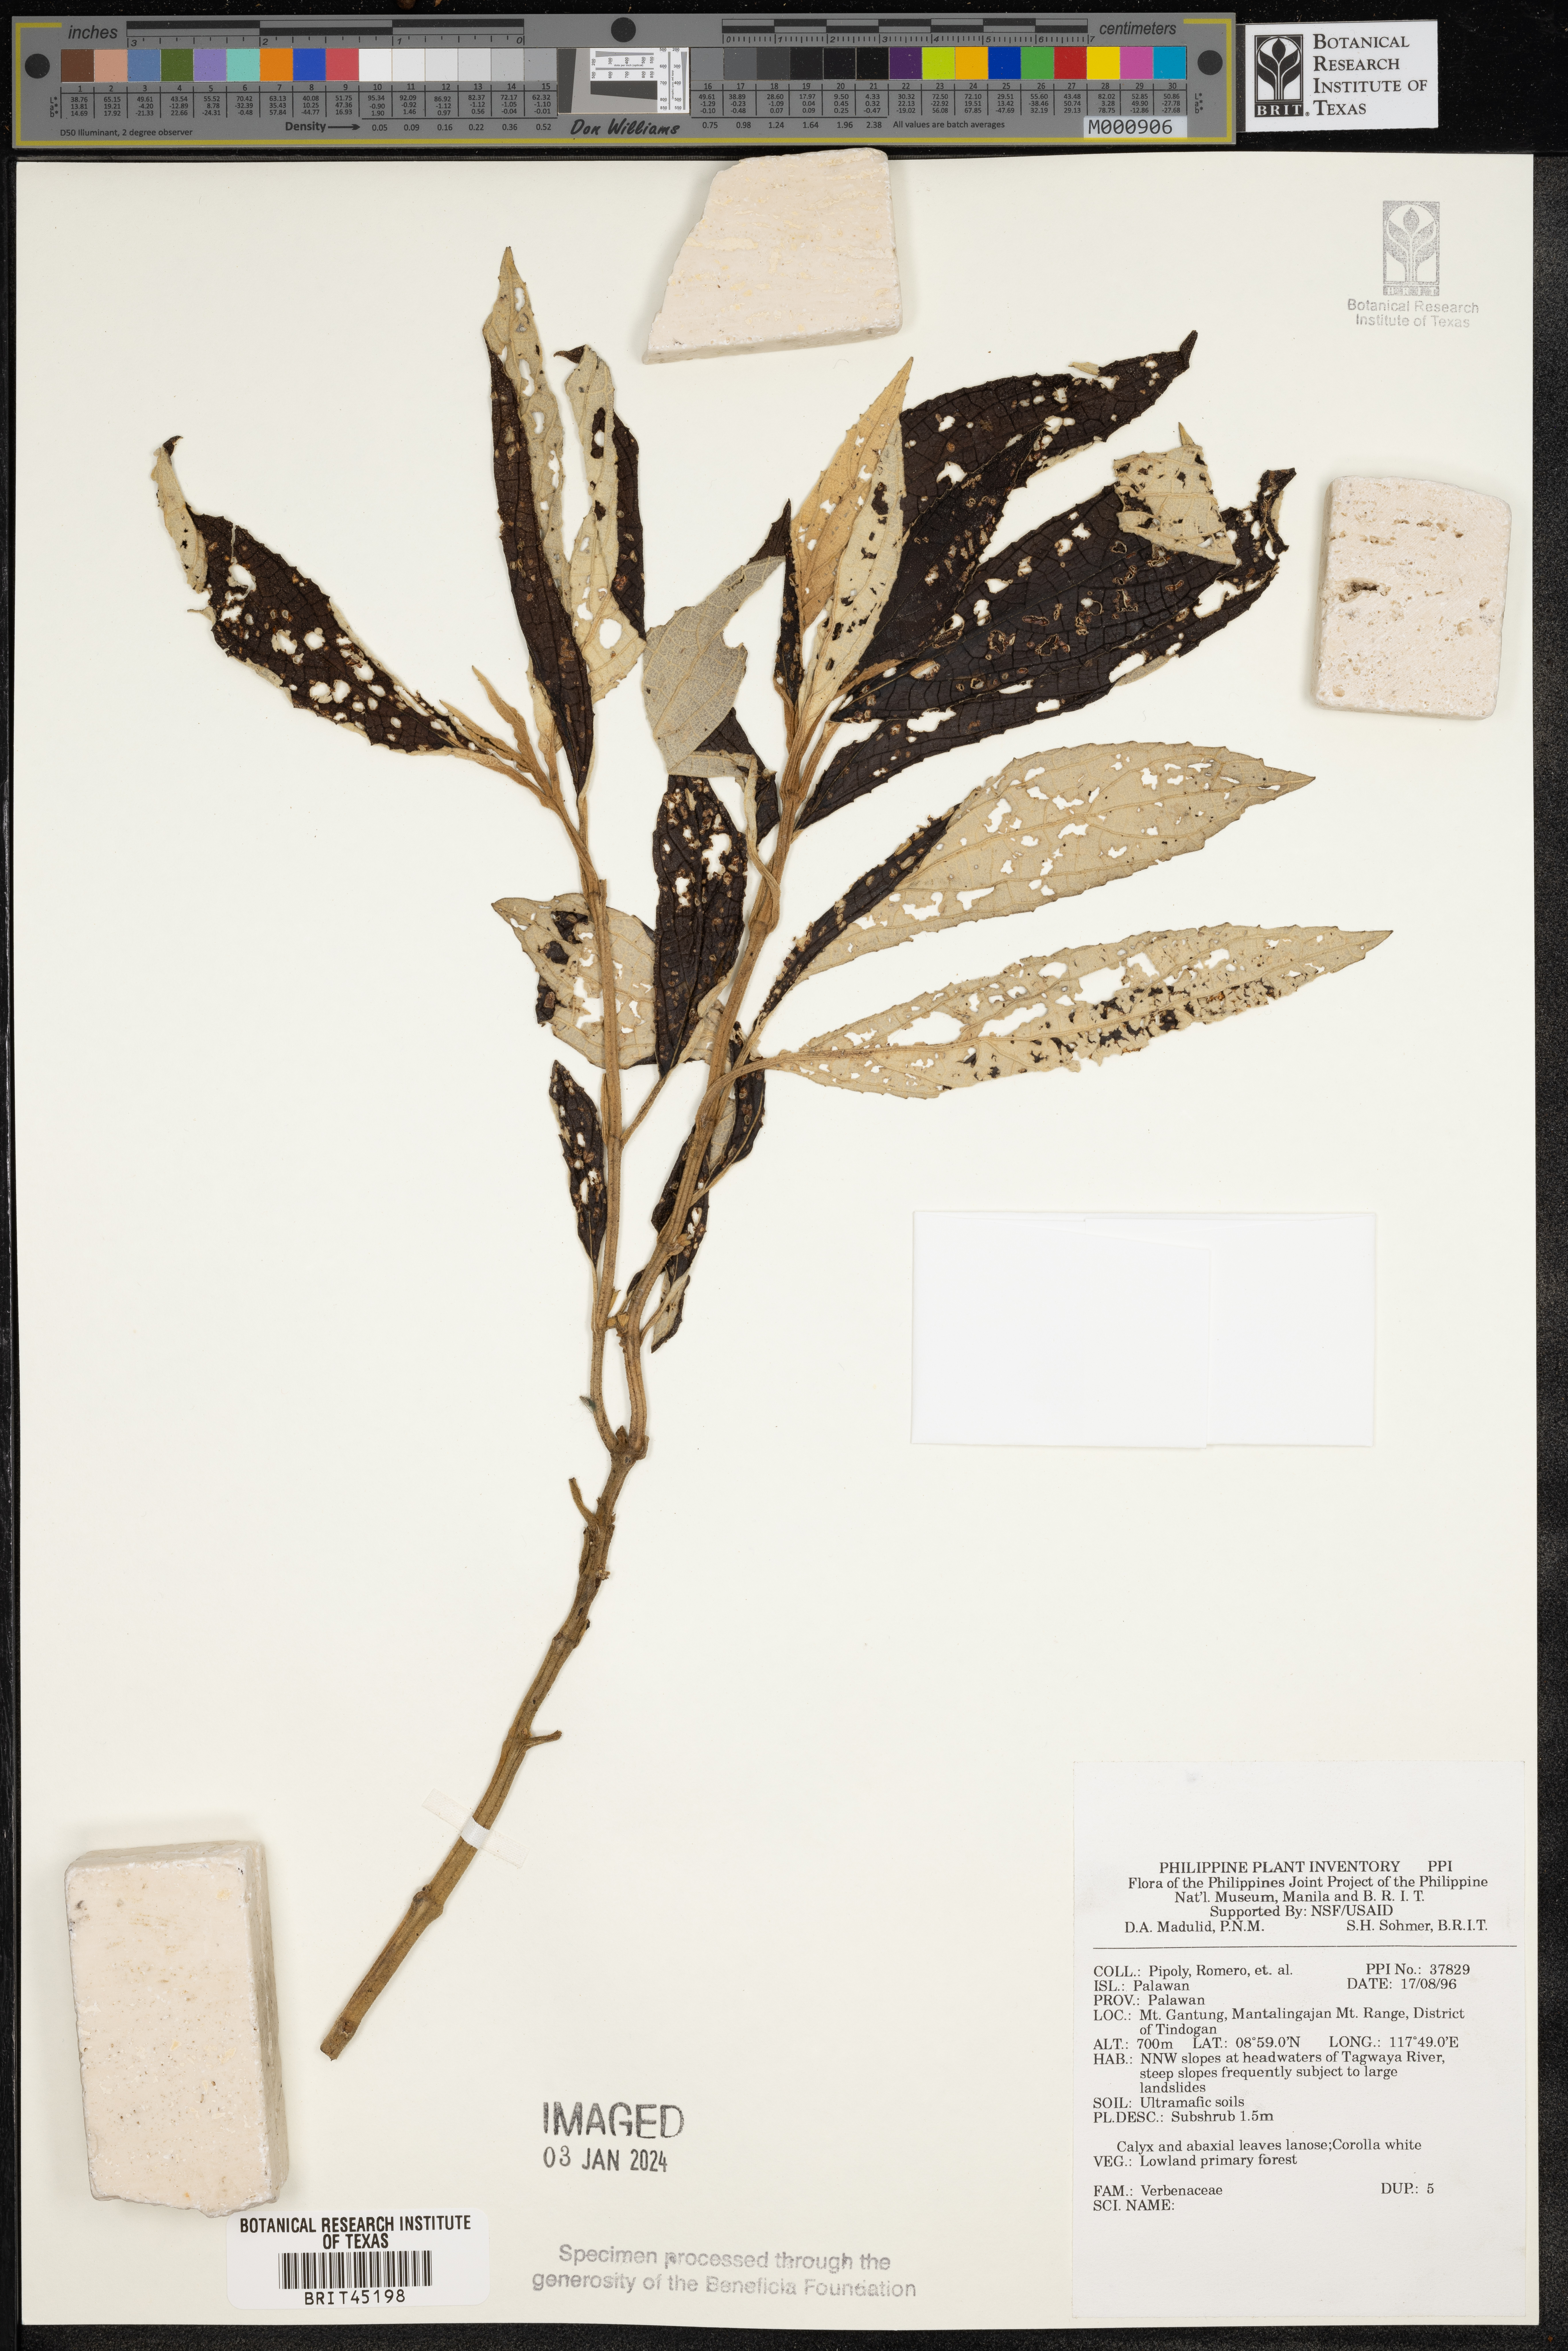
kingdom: Plantae
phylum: Tracheophyta
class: Magnoliopsida
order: Lamiales
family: Verbenaceae
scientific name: Verbenaceae
